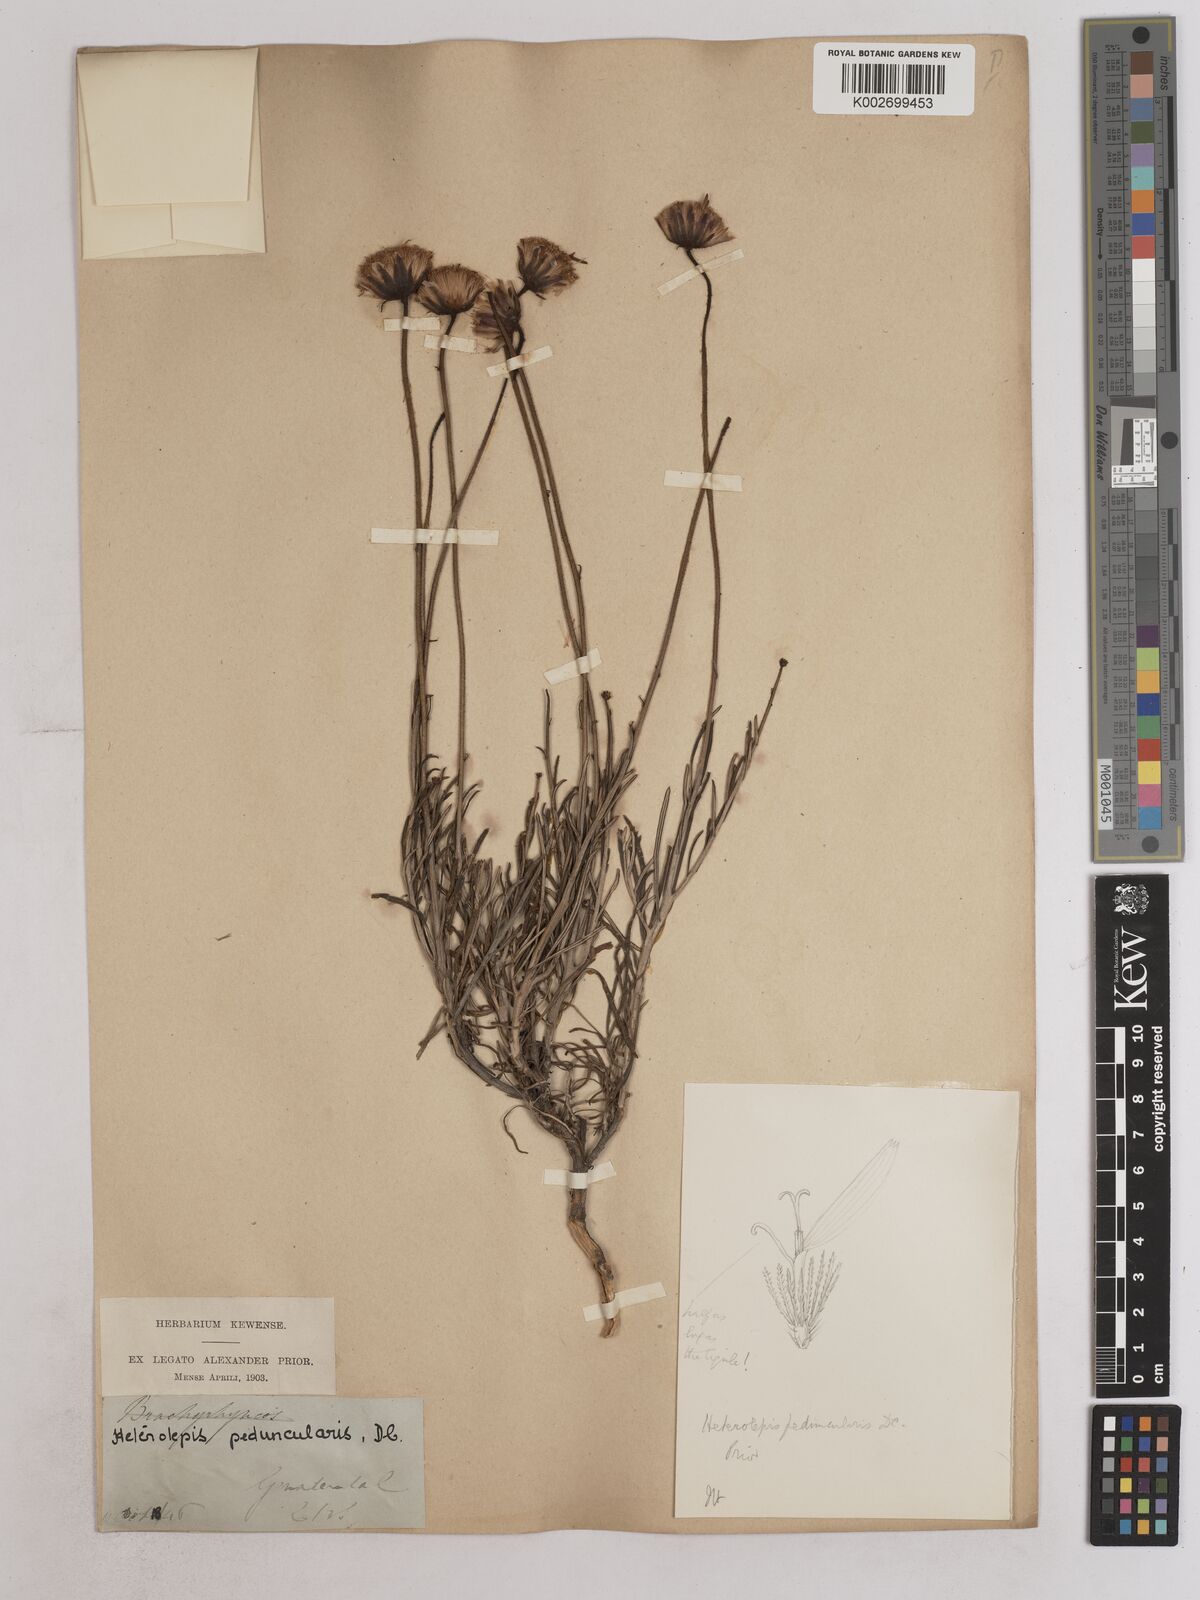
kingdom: Plantae
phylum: Tracheophyta
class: Magnoliopsida
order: Asterales
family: Asteraceae
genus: Heterolepis
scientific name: Heterolepis peduncularis
